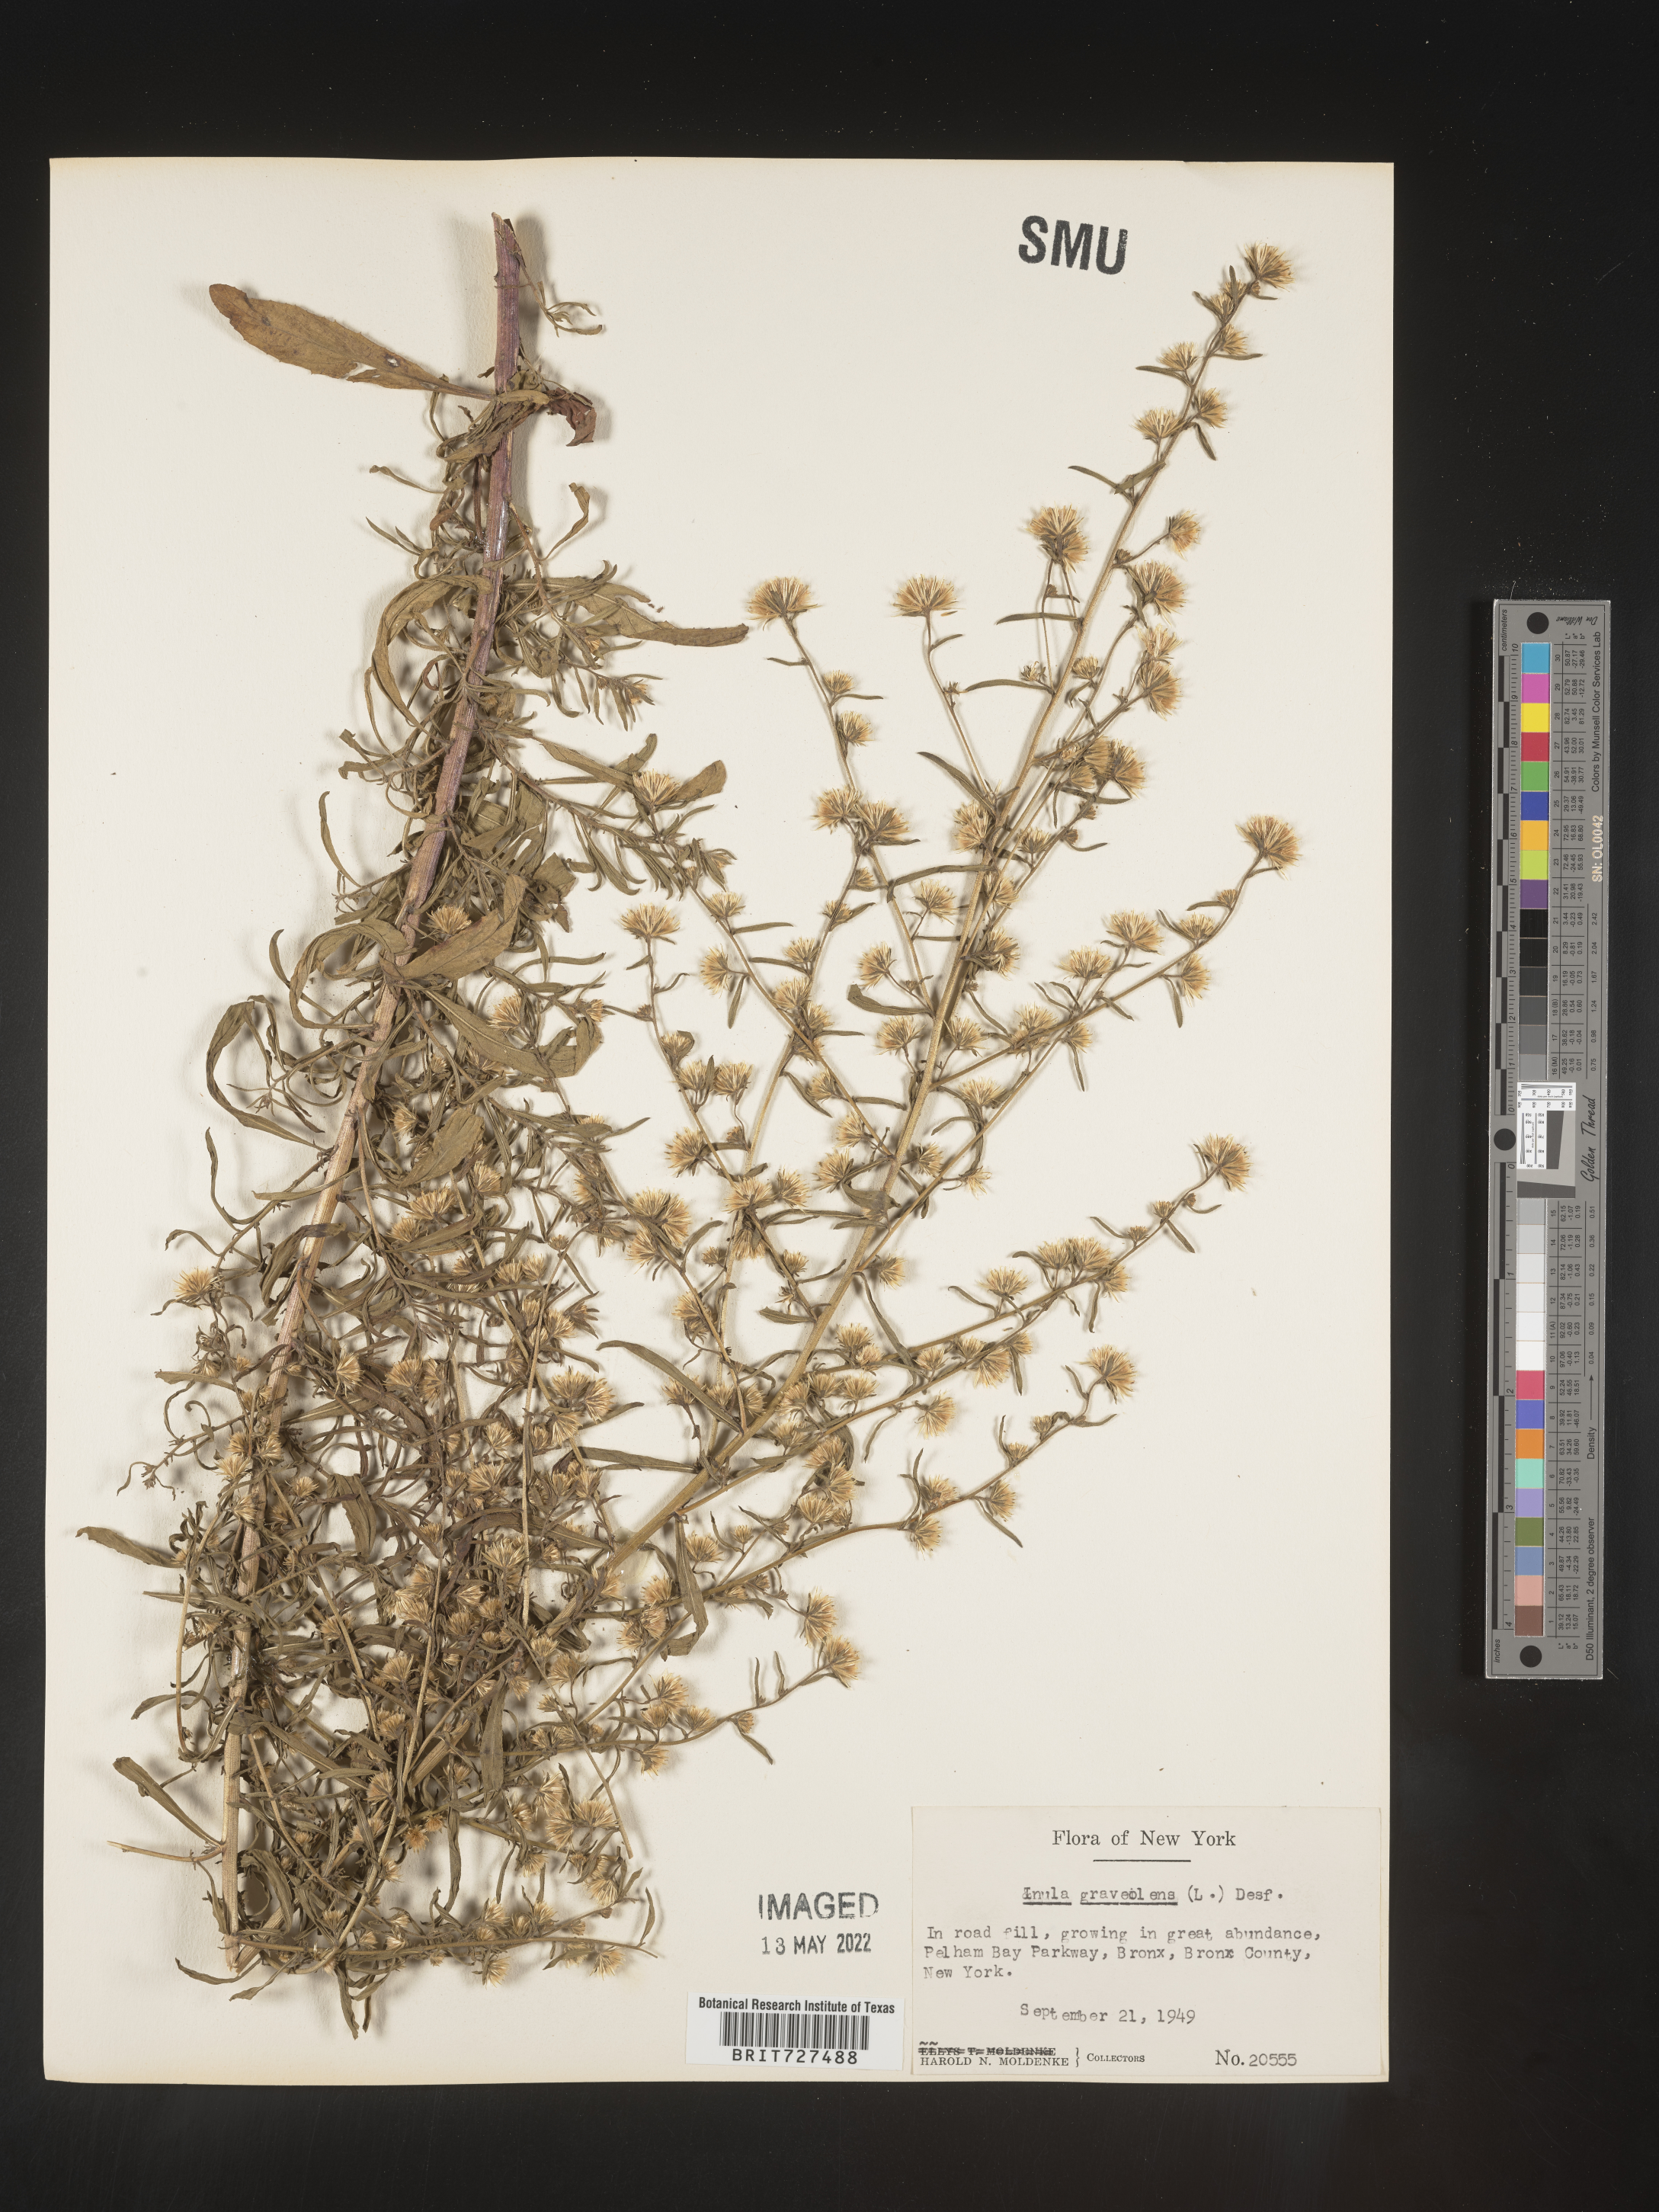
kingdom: Plantae
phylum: Tracheophyta
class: Magnoliopsida
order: Asterales
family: Asteraceae
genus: Inula
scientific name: Inula
